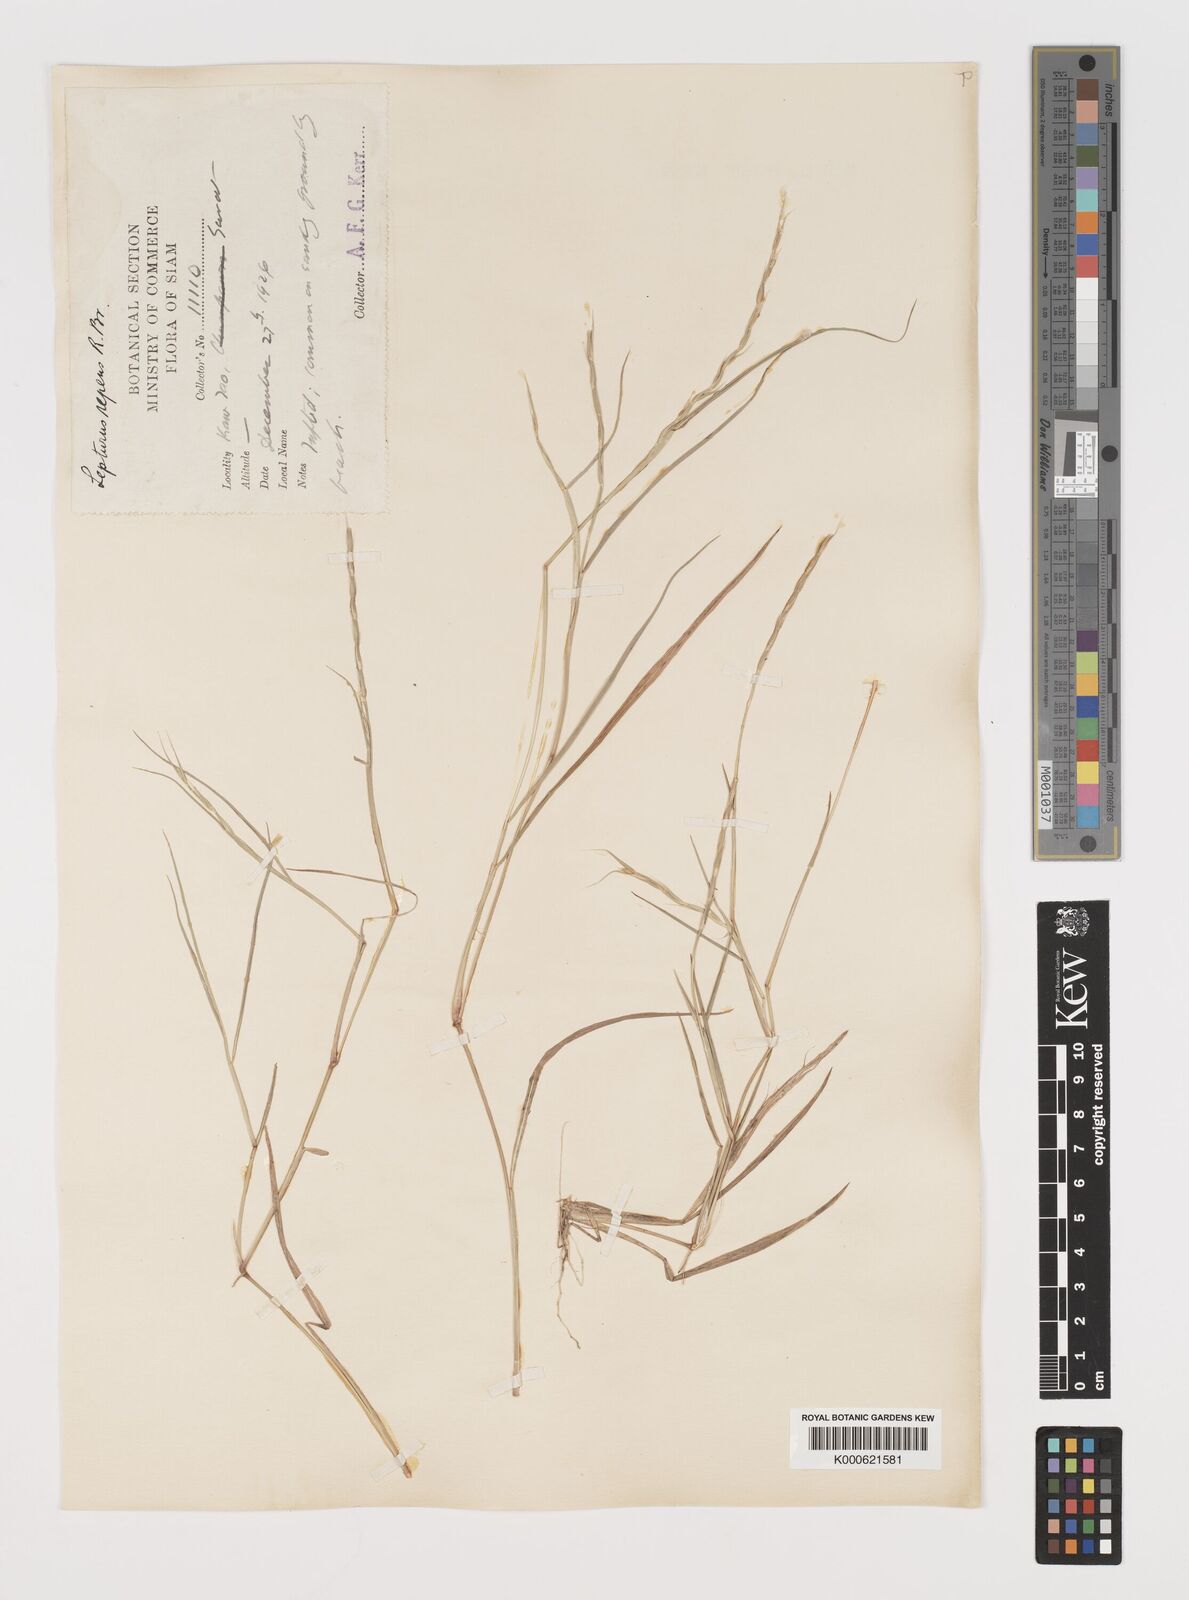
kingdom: Plantae
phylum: Tracheophyta
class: Liliopsida
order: Poales
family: Poaceae
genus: Lepturus
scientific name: Lepturus repens
